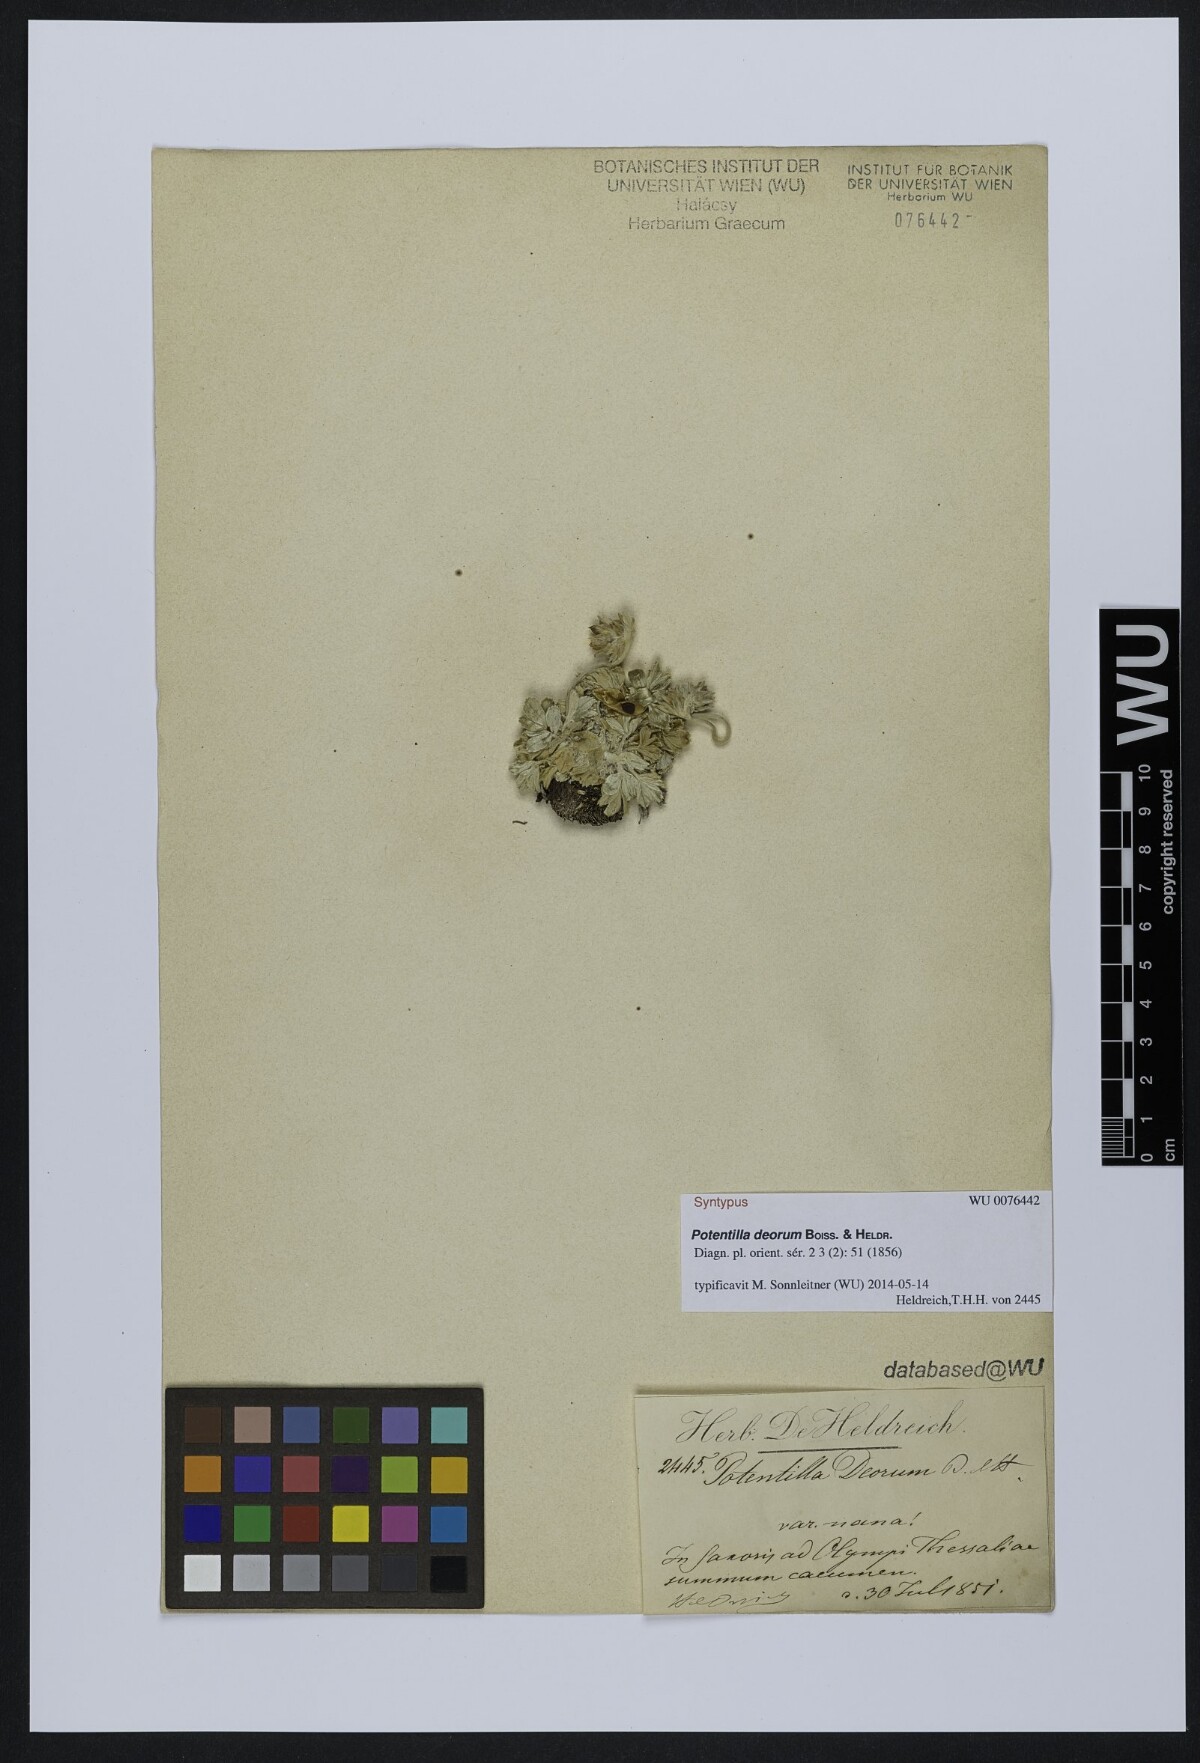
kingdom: Plantae
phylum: Tracheophyta
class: Magnoliopsida
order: Rosales
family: Rosaceae
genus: Potentilla
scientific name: Potentilla deorum
